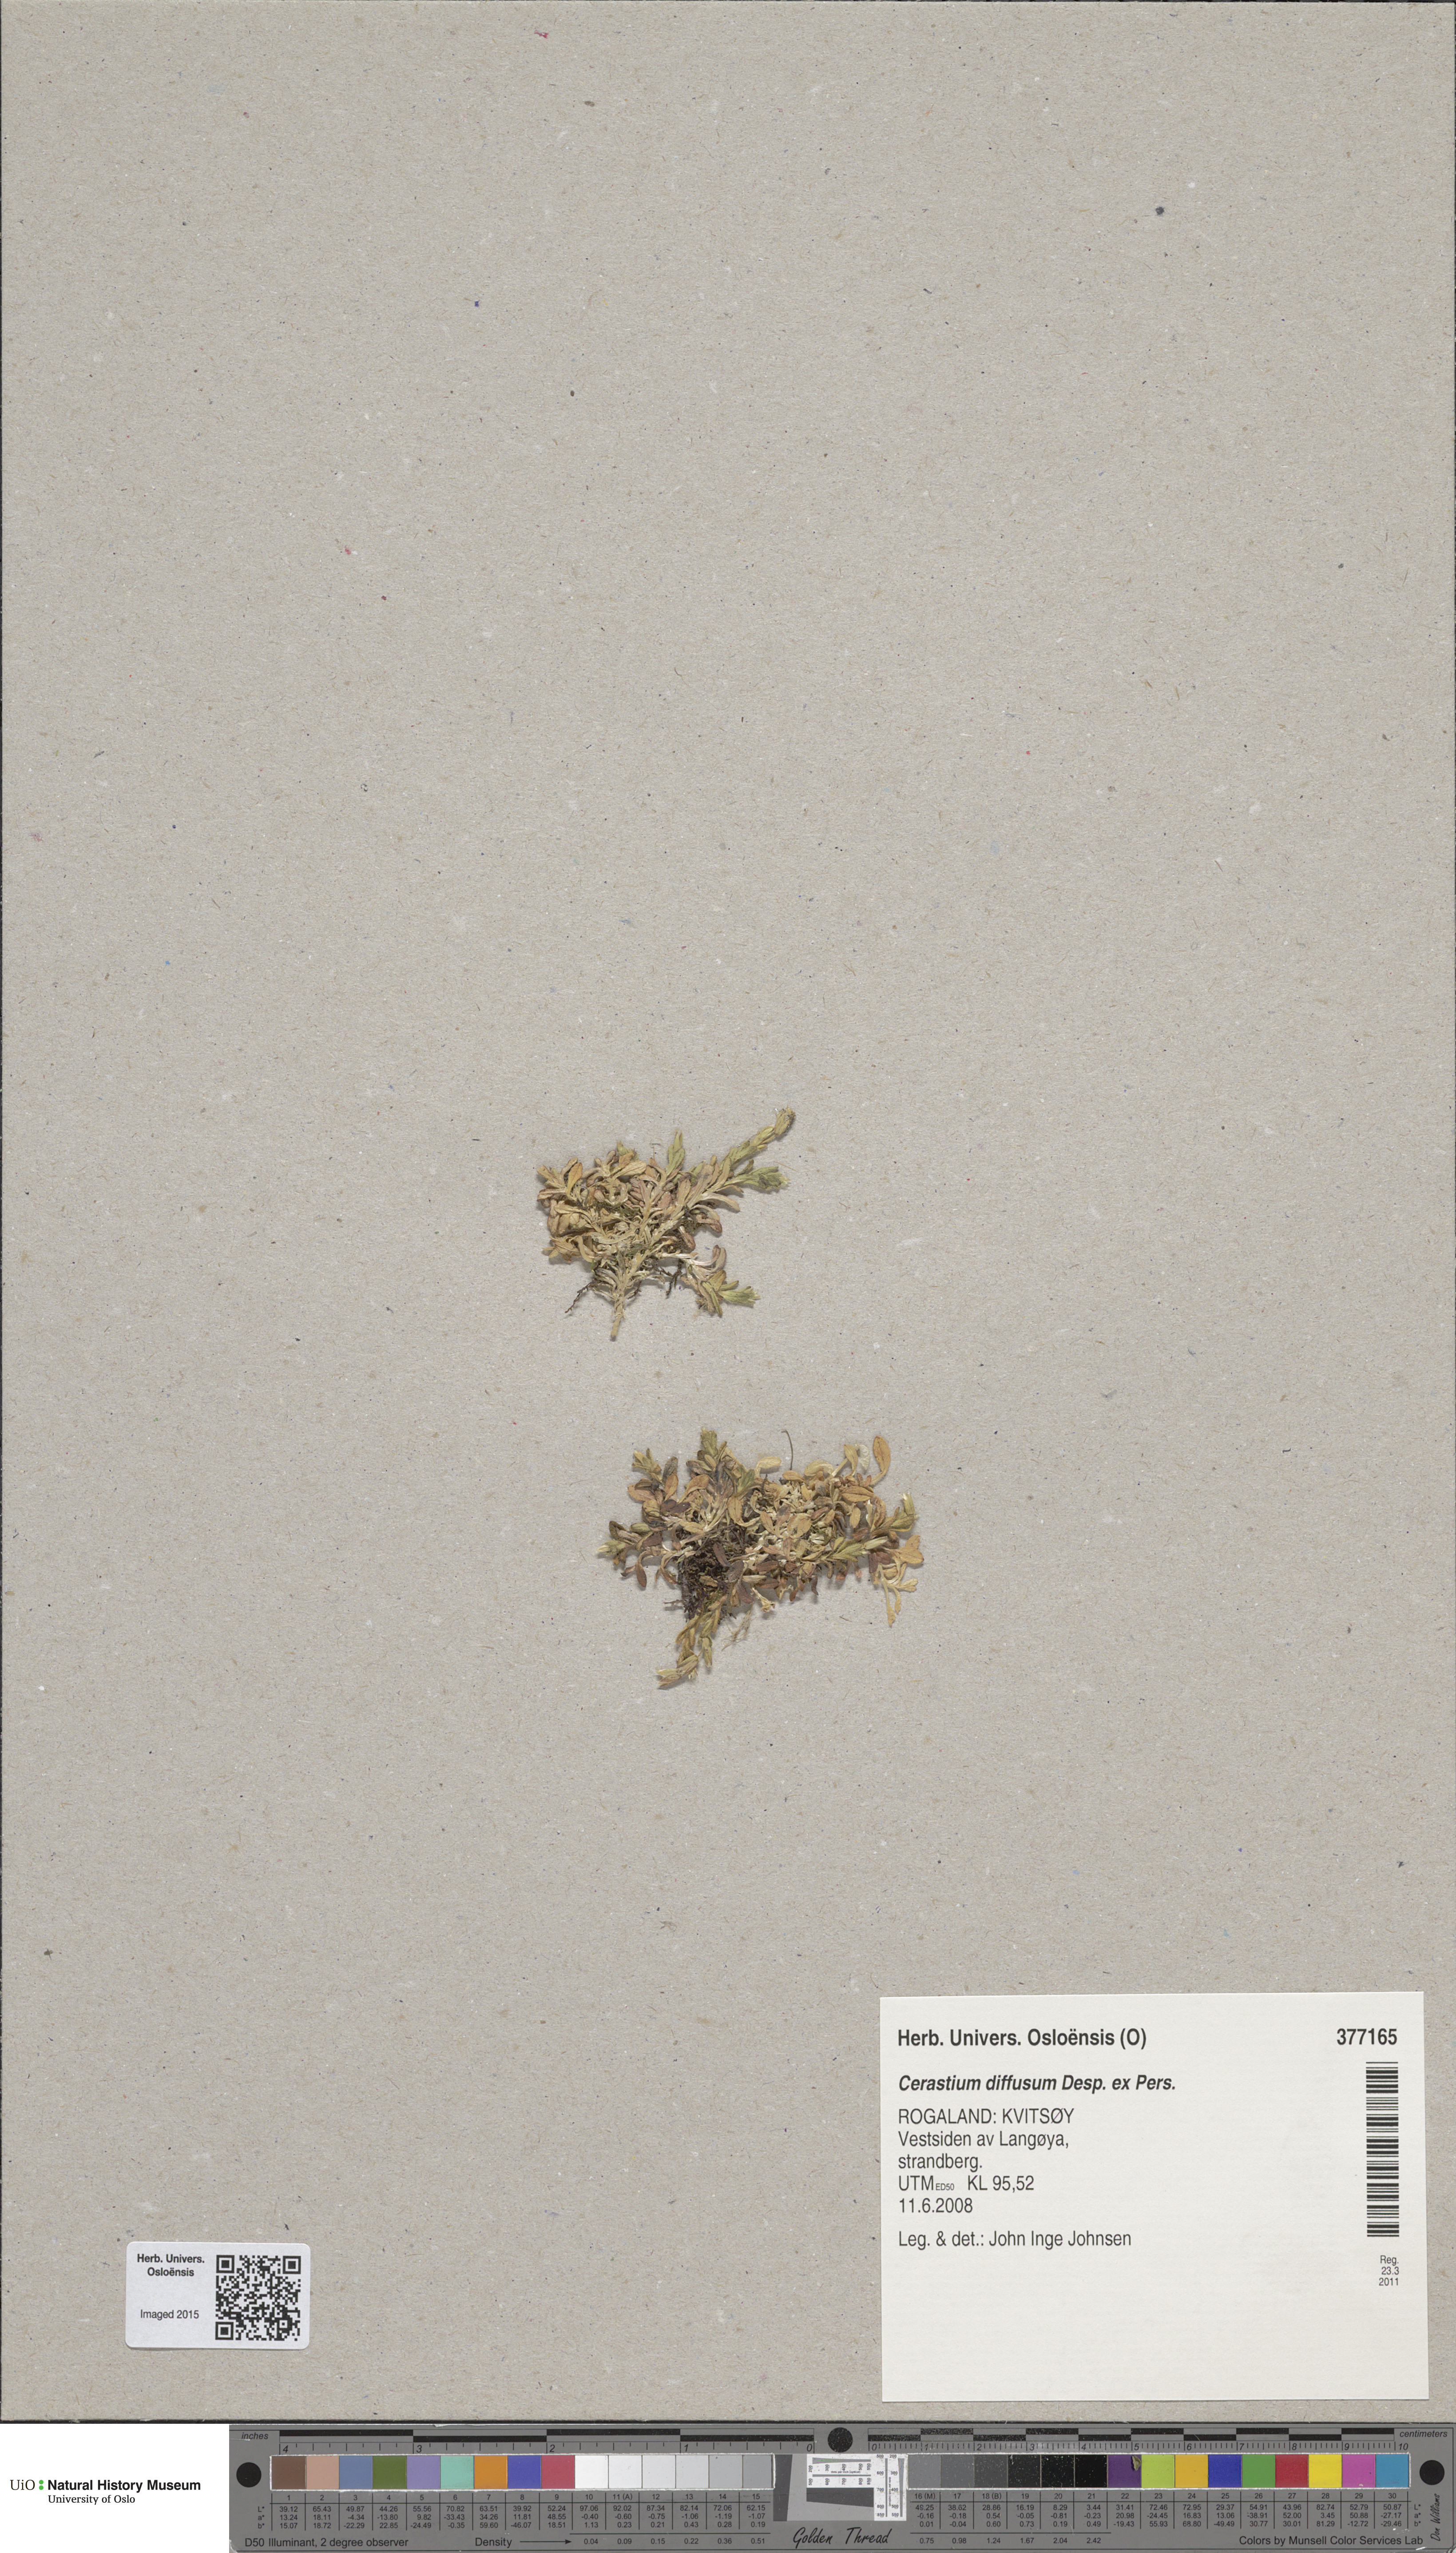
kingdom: Plantae
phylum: Tracheophyta
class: Magnoliopsida
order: Caryophyllales
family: Caryophyllaceae
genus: Cerastium
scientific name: Cerastium diffusum
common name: Fourstamen chickweed
